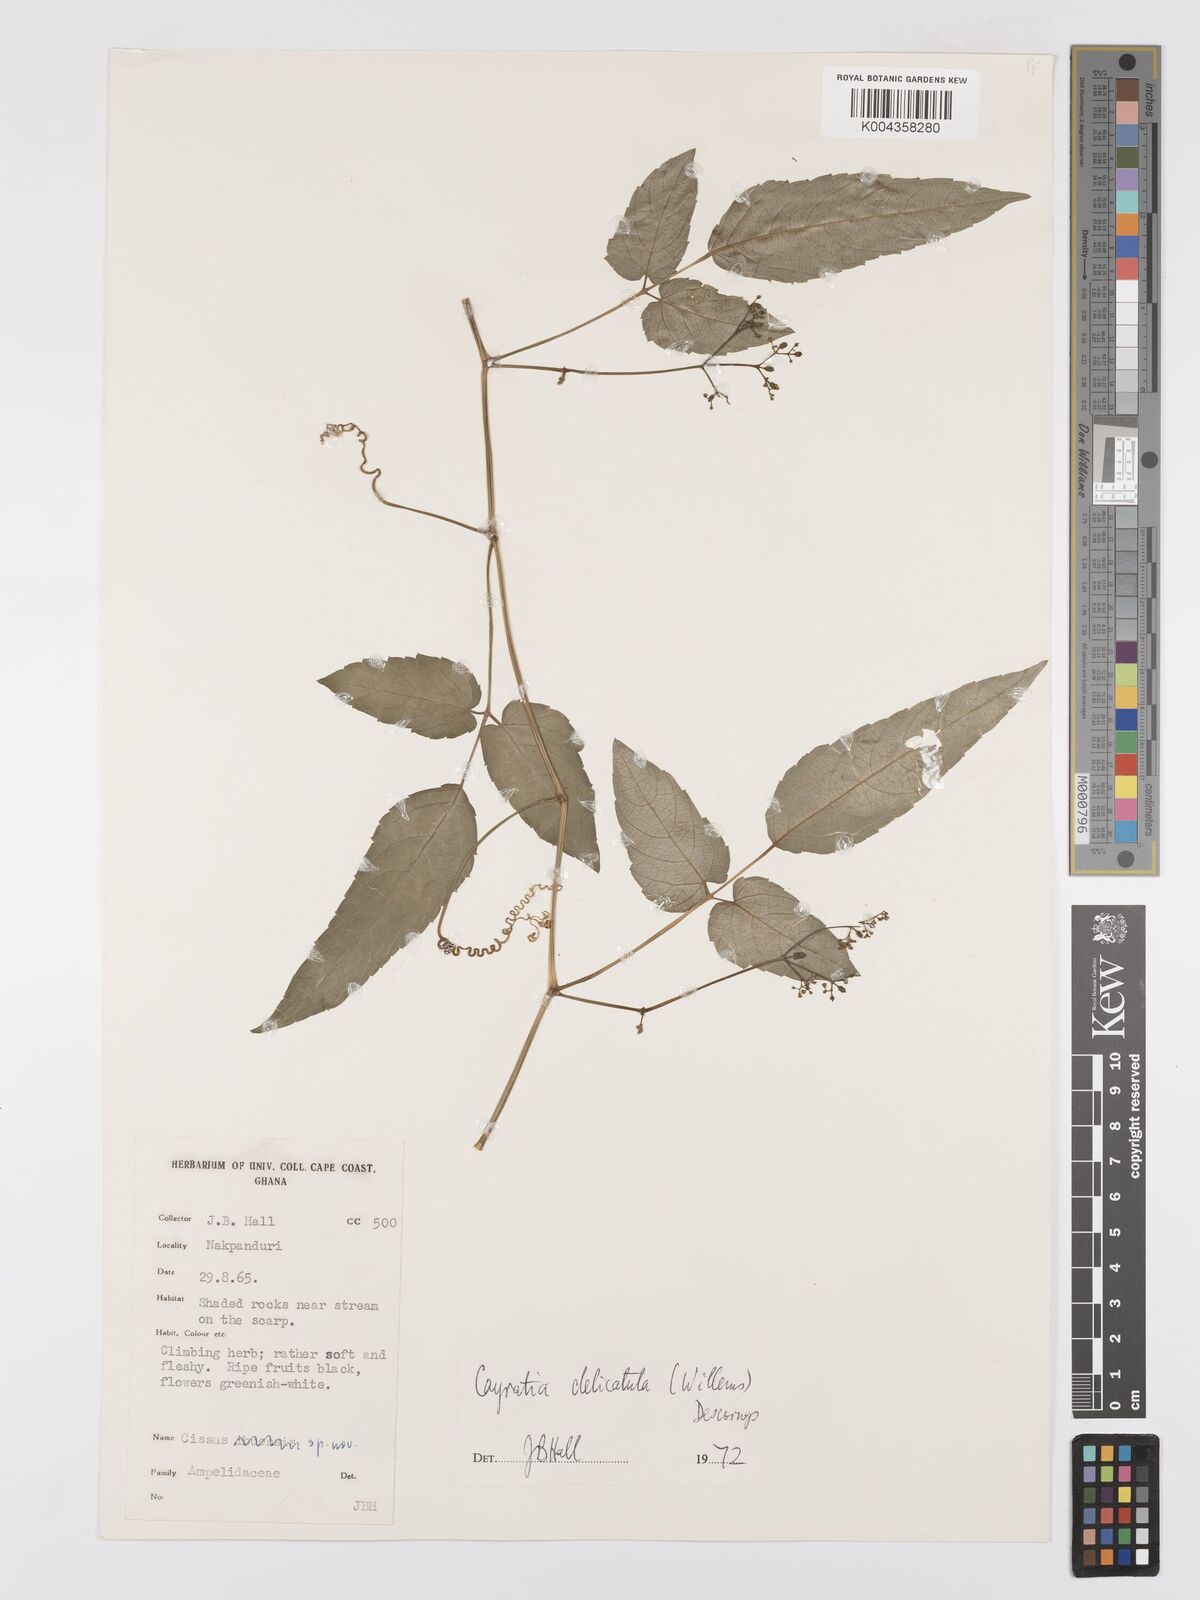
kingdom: Plantae
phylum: Tracheophyta
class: Magnoliopsida
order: Vitales
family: Vitaceae
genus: Afrocayratia
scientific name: Afrocayratia delicatula
